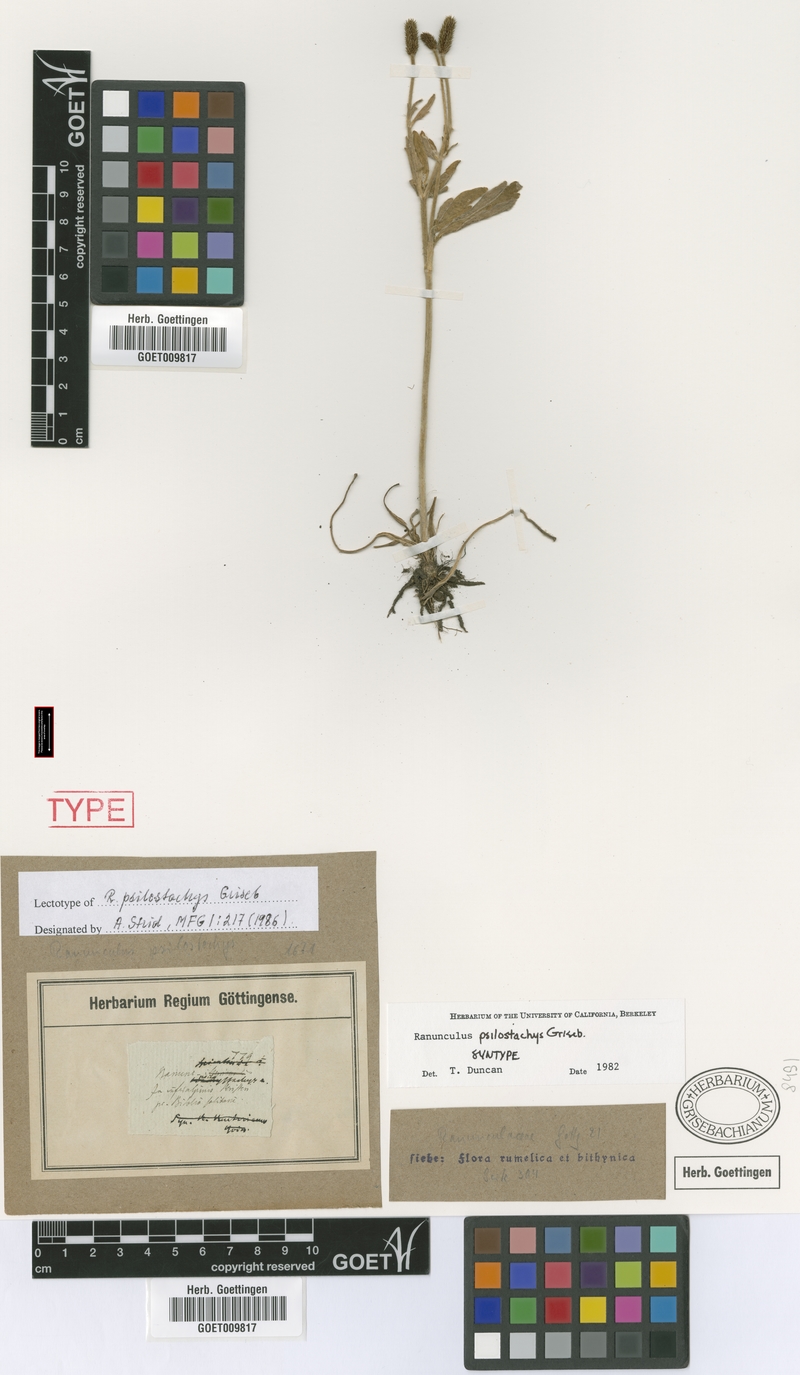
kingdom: Plantae
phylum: Tracheophyta
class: Magnoliopsida
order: Ranunculales
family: Ranunculaceae
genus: Ranunculus
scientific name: Ranunculus psilostachys
